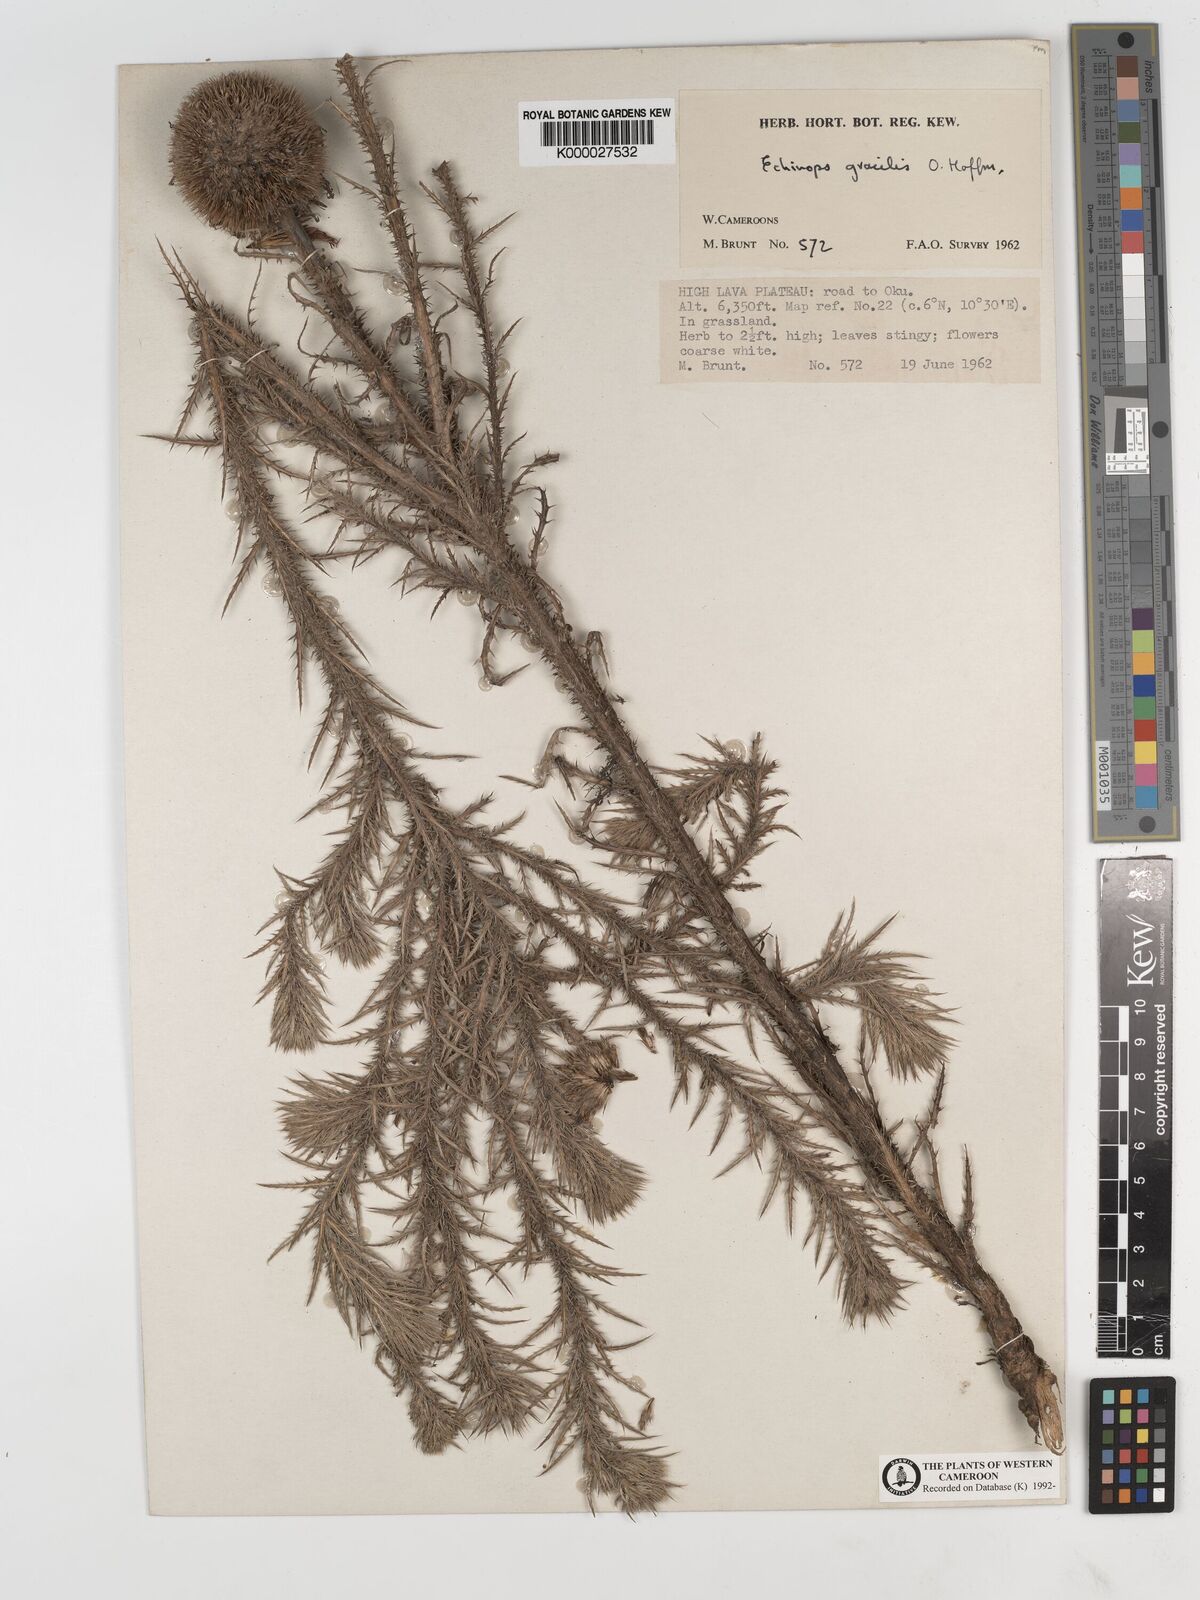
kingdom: Plantae
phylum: Tracheophyta
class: Magnoliopsida
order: Asterales
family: Asteraceae
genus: Echinops
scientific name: Echinops gracilis
